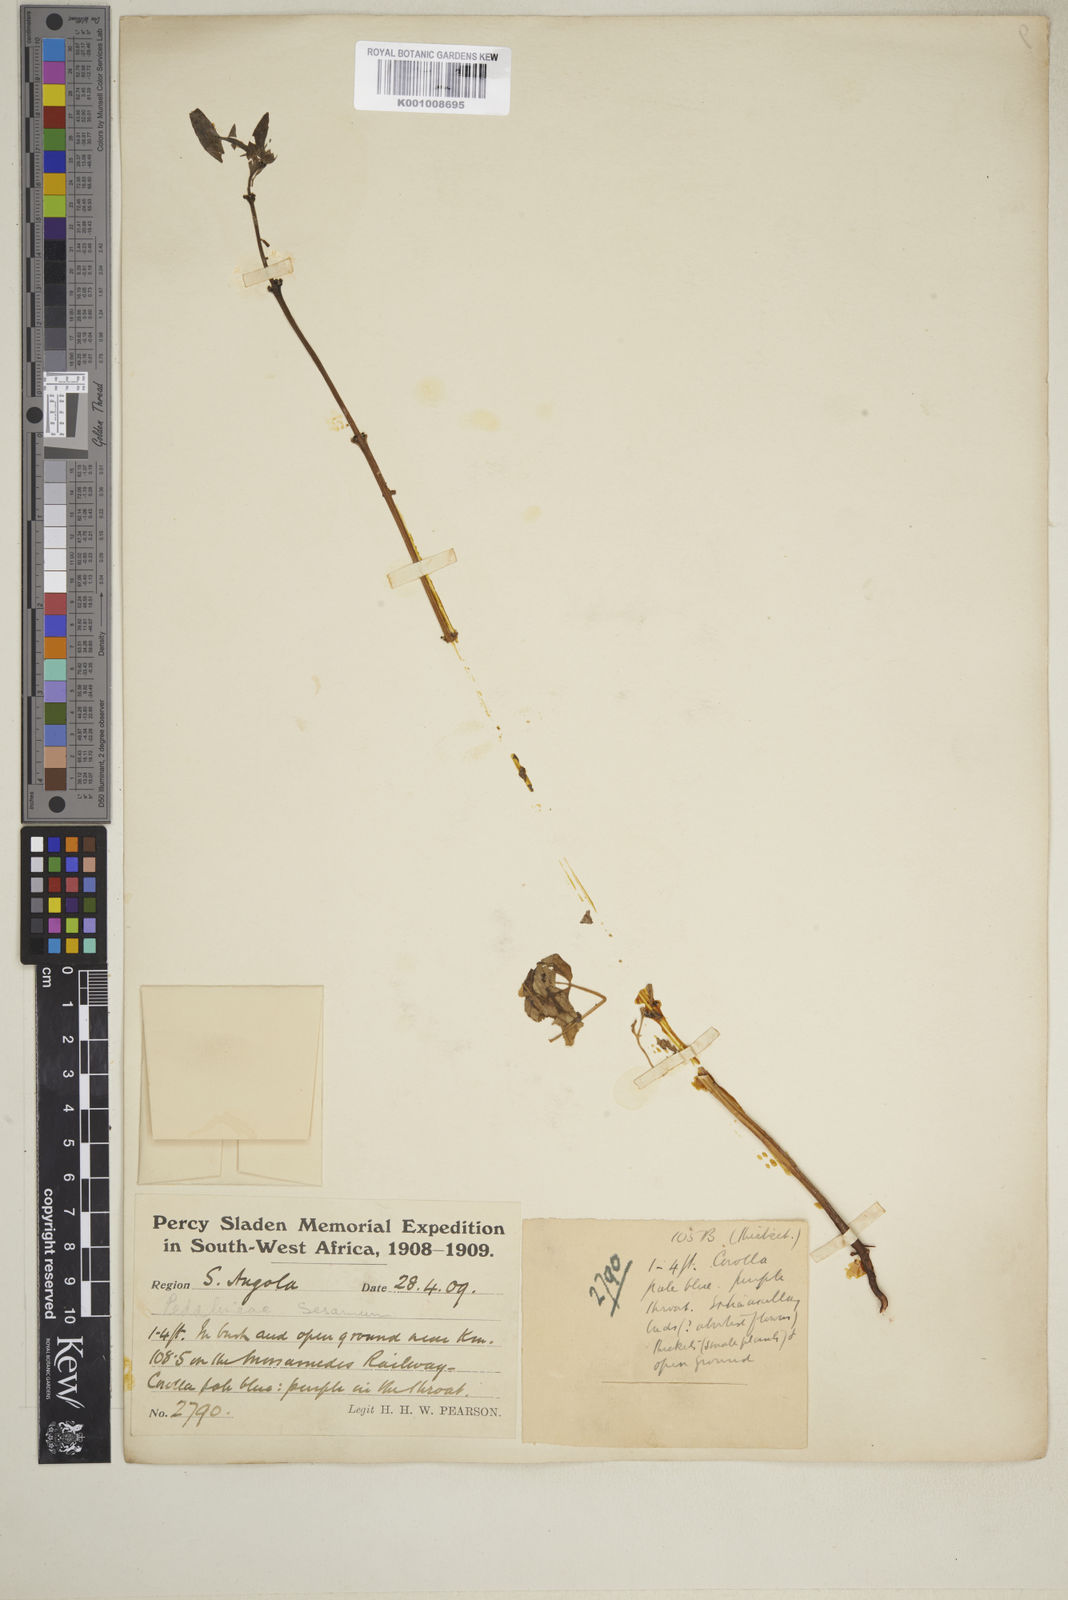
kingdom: Plantae
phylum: Tracheophyta
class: Magnoliopsida
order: Lamiales
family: Pedaliaceae
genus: Sesamum
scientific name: Sesamum capense
